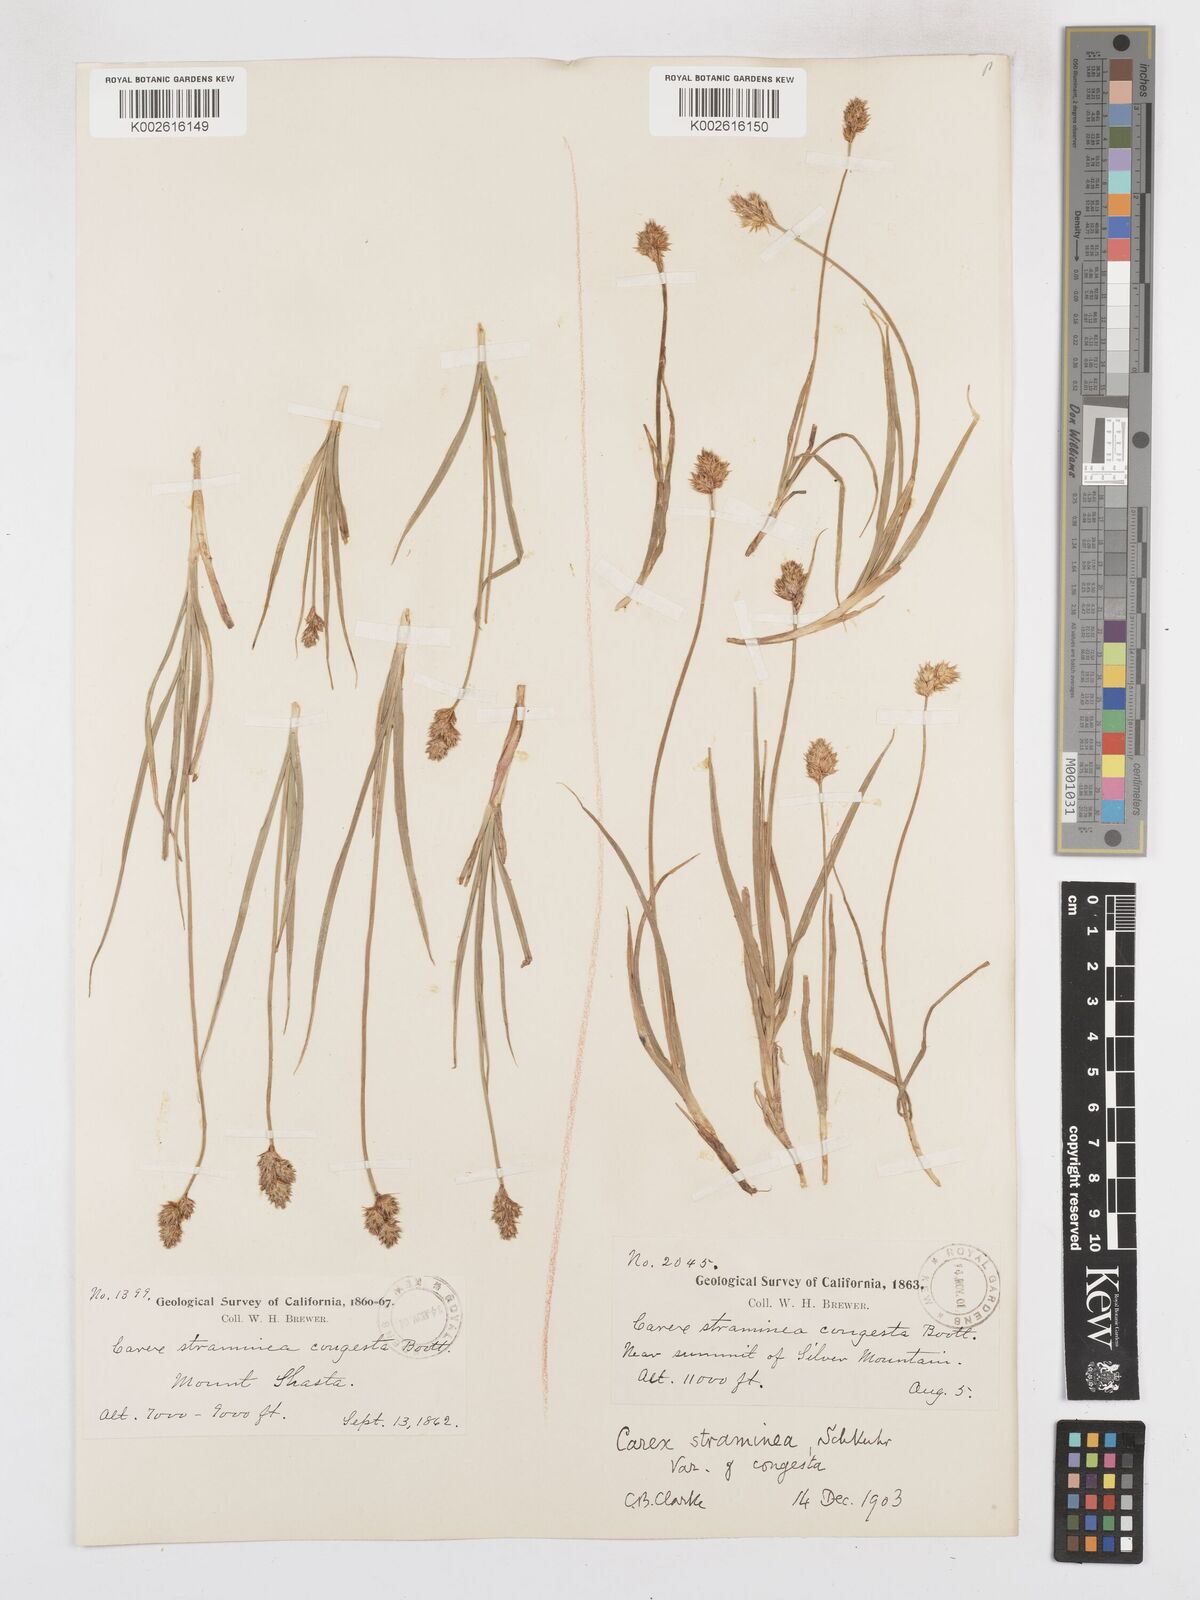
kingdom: Plantae
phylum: Tracheophyta
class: Liliopsida
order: Poales
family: Cyperaceae
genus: Carex
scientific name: Carex brevior
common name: Brevior sedge
